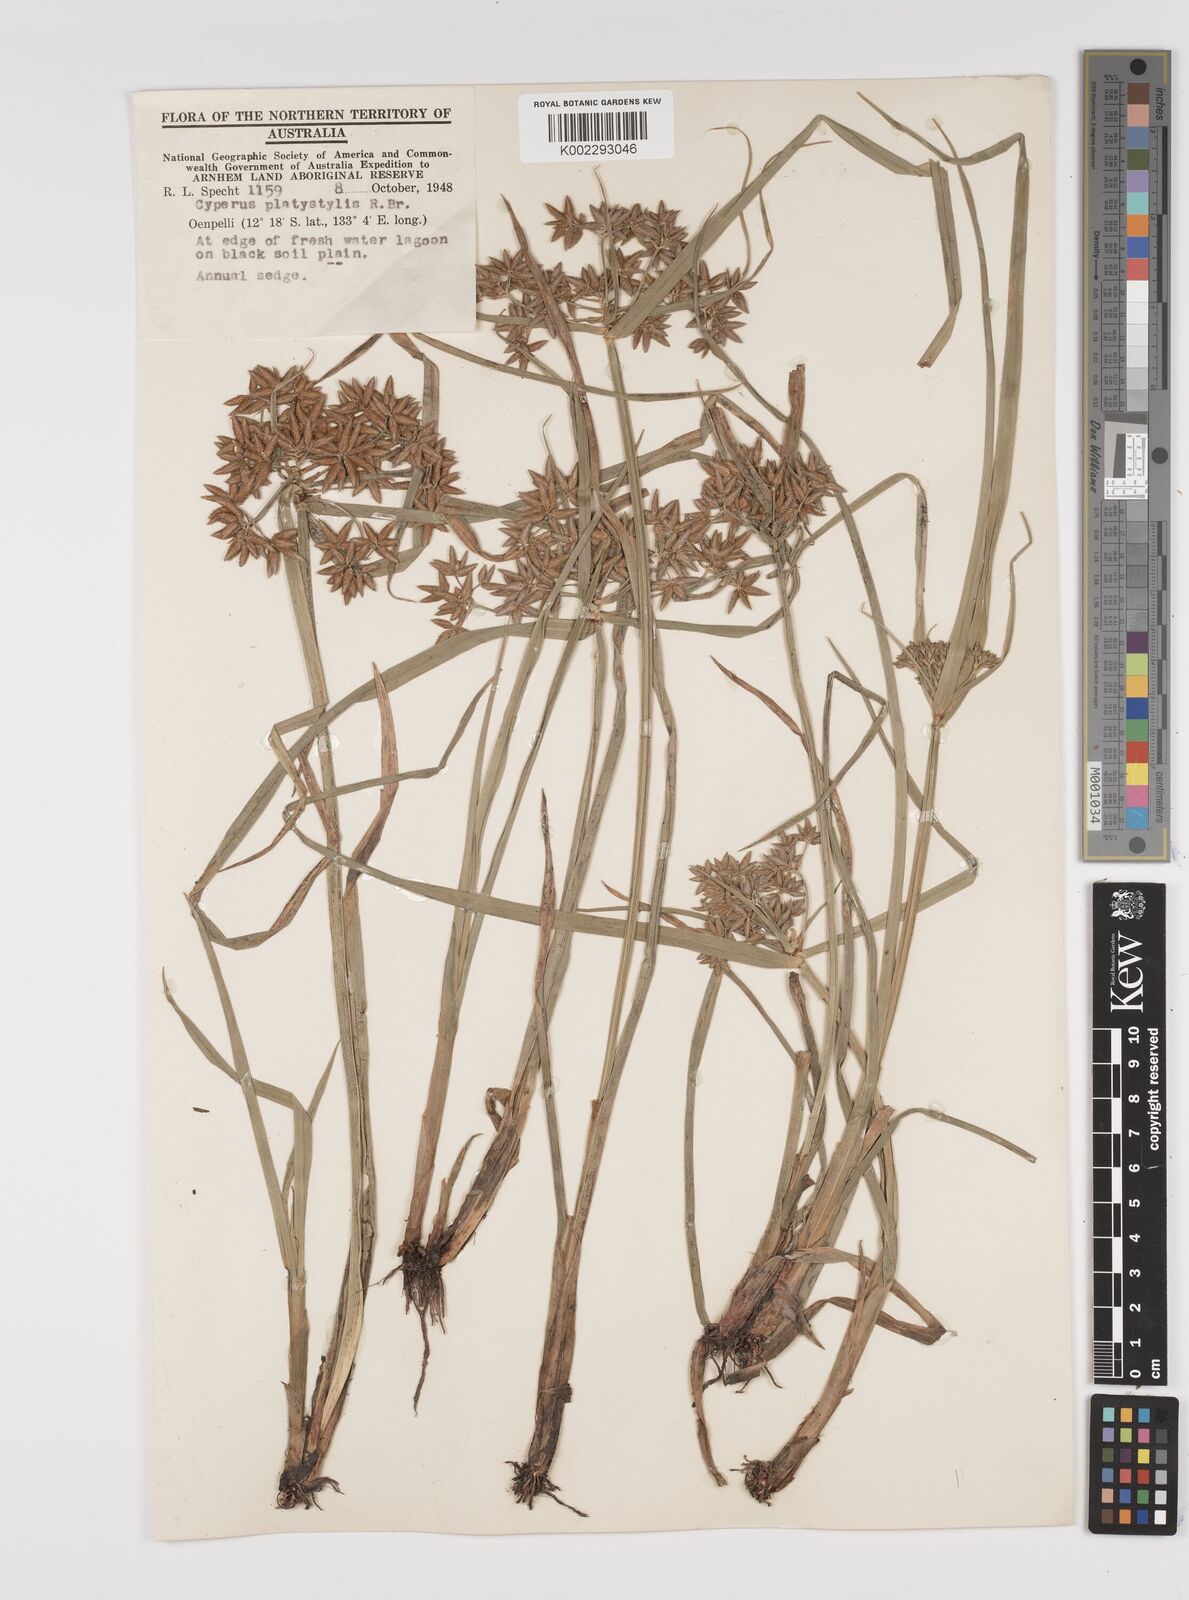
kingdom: Plantae
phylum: Tracheophyta
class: Liliopsida
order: Poales
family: Cyperaceae
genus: Cyperus
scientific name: Cyperus platystylis
